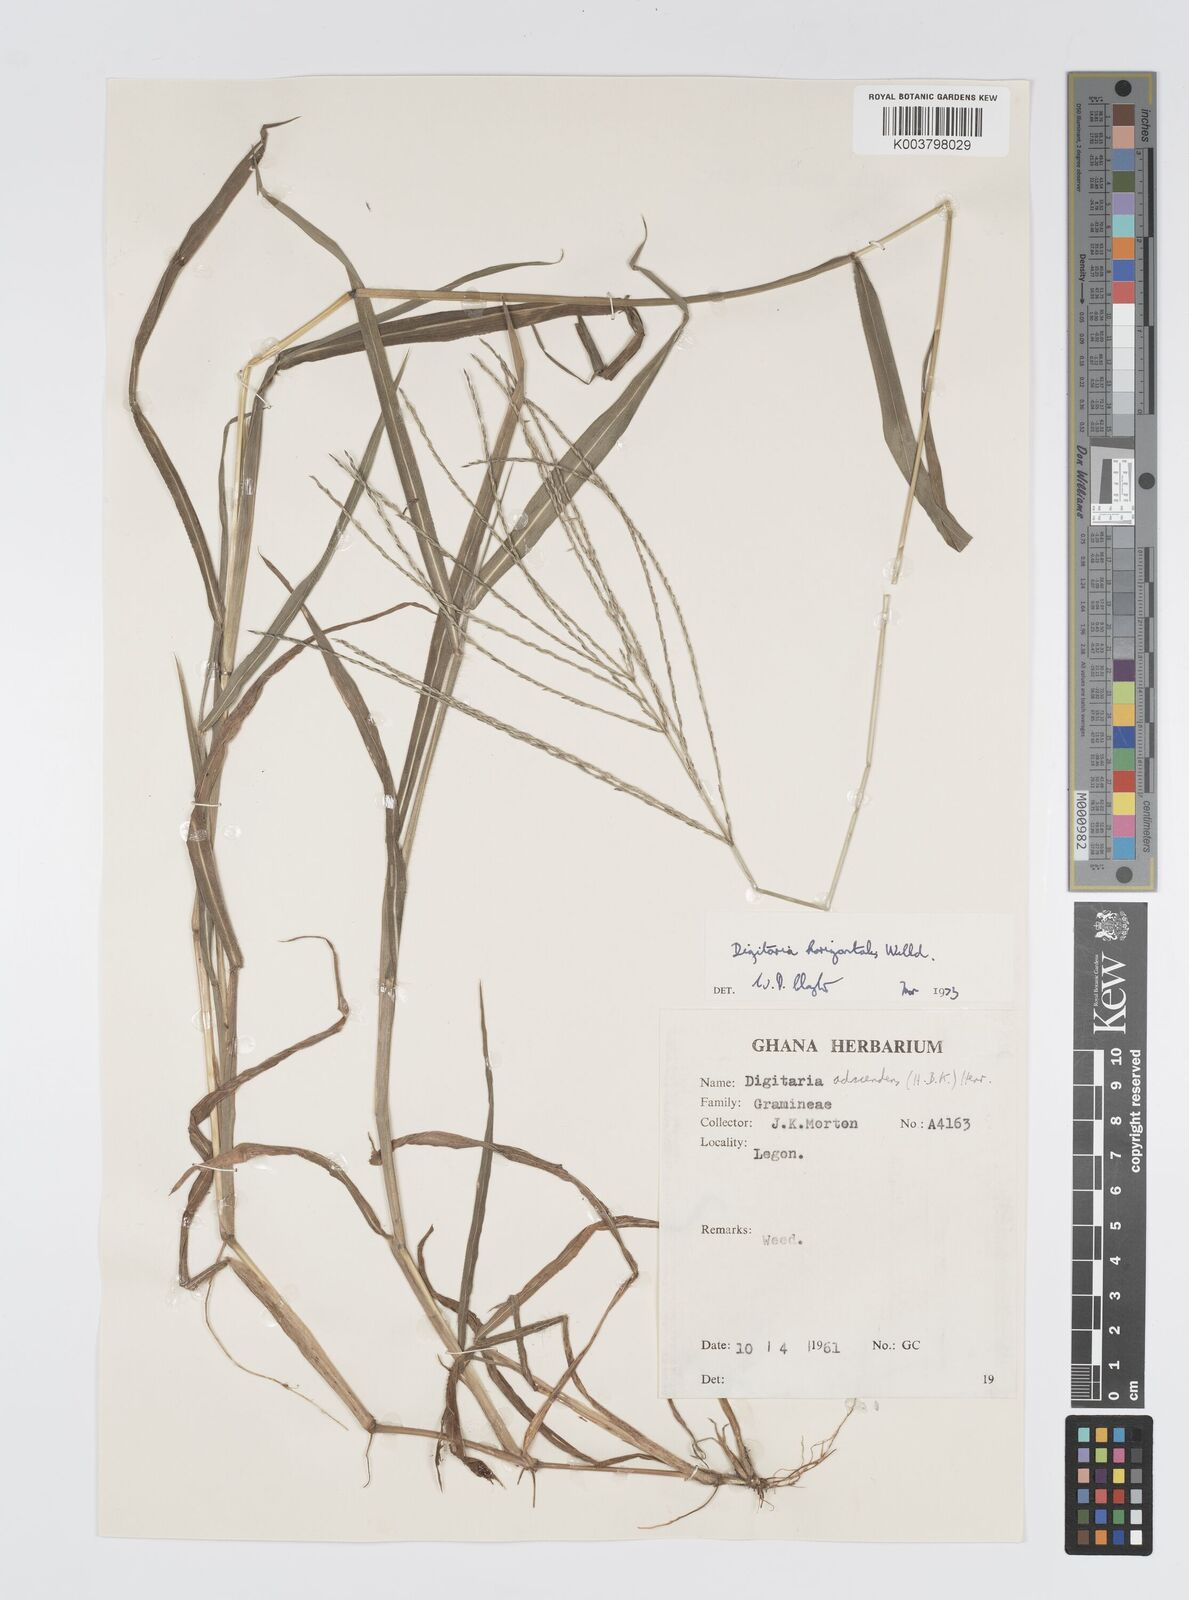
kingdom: Plantae
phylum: Tracheophyta
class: Liliopsida
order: Poales
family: Poaceae
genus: Digitaria
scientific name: Digitaria horizontalis
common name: Jamaican crabgrass
